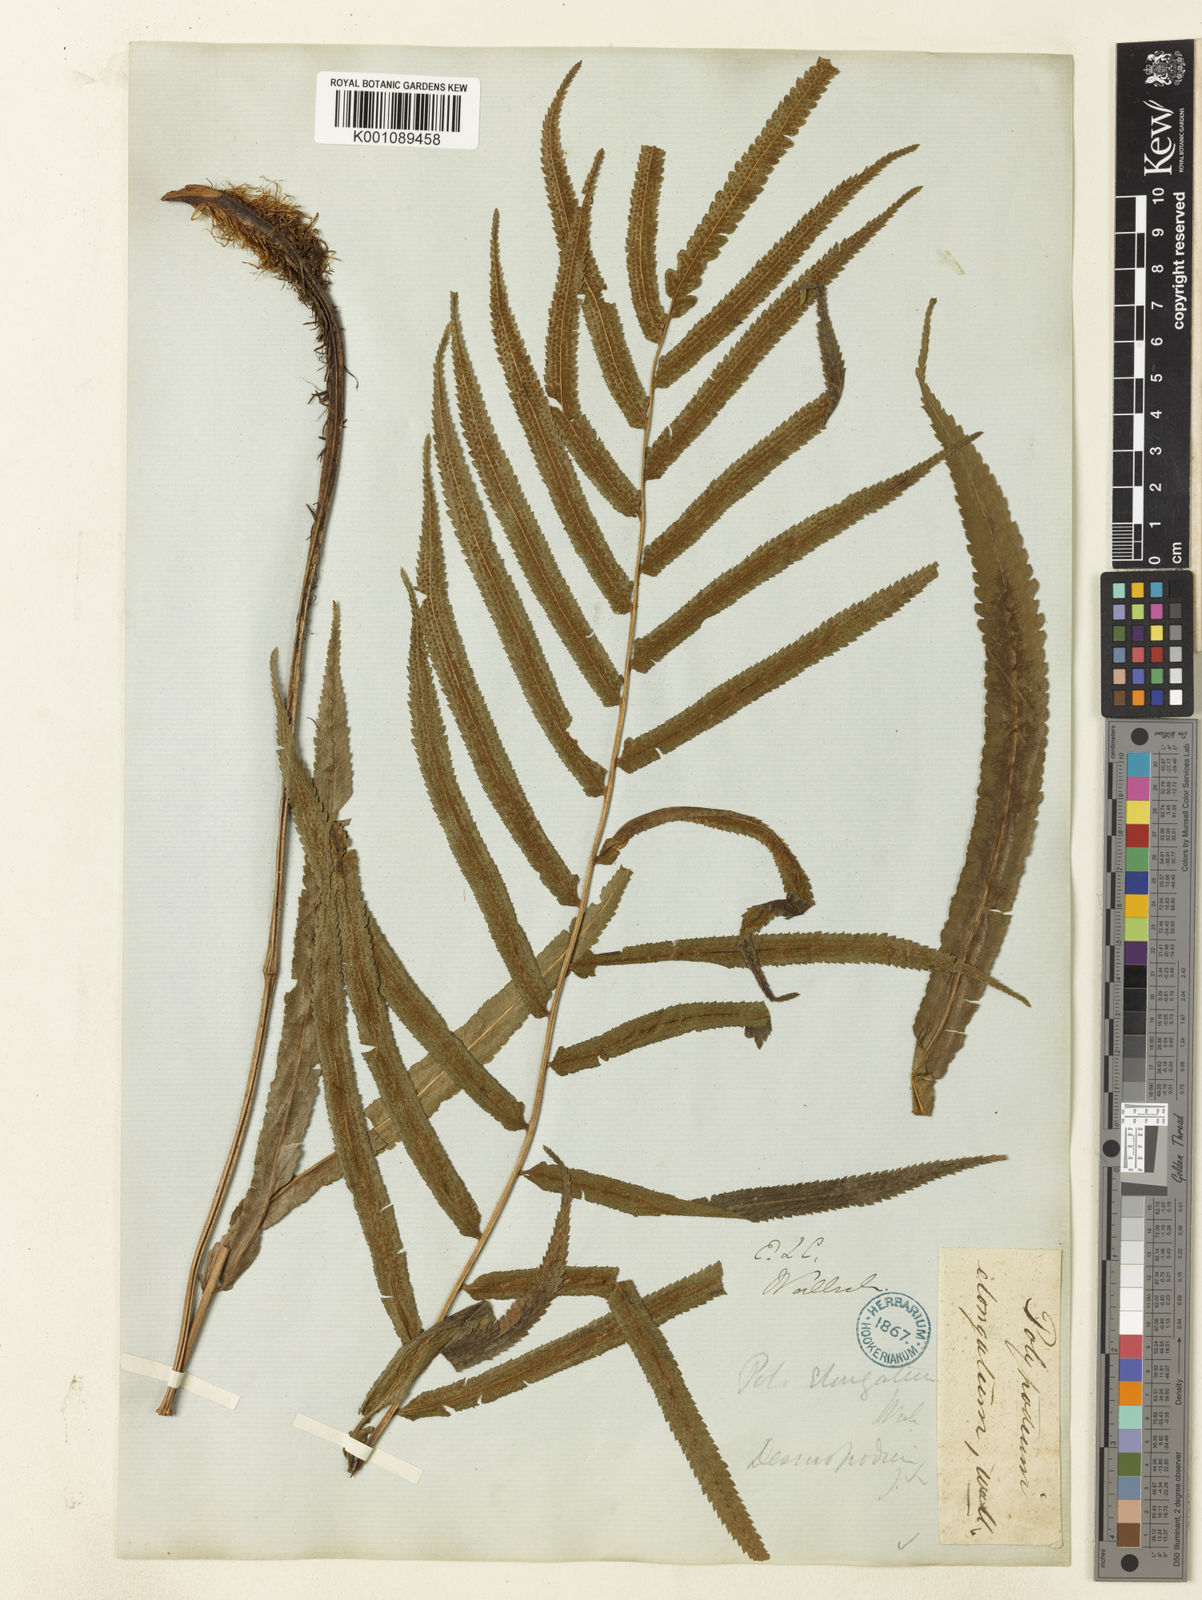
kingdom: Plantae
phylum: Tracheophyta
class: Polypodiopsida
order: Polypodiales
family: Athyriaceae
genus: Anisocampium
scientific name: Anisocampium cuspidatum
